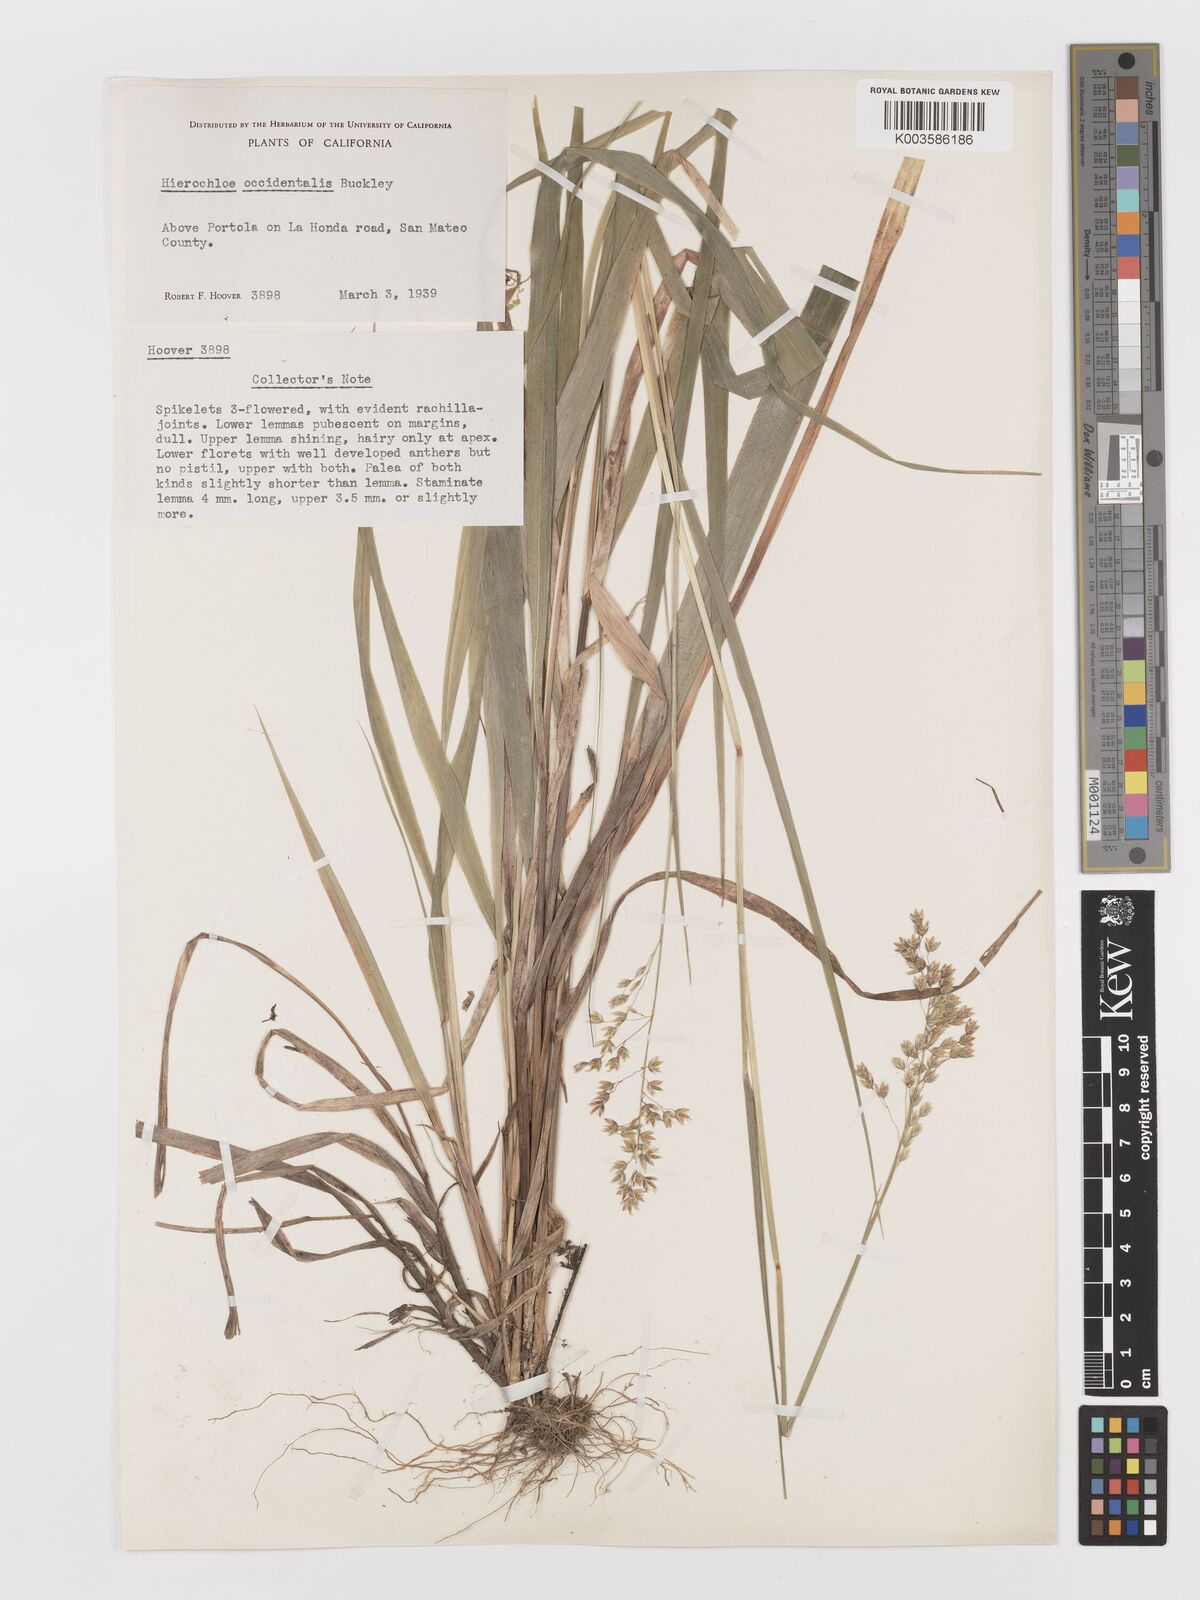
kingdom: Plantae
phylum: Tracheophyta
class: Liliopsida
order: Poales
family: Poaceae
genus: Anthoxanthum
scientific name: Anthoxanthum occidentale
